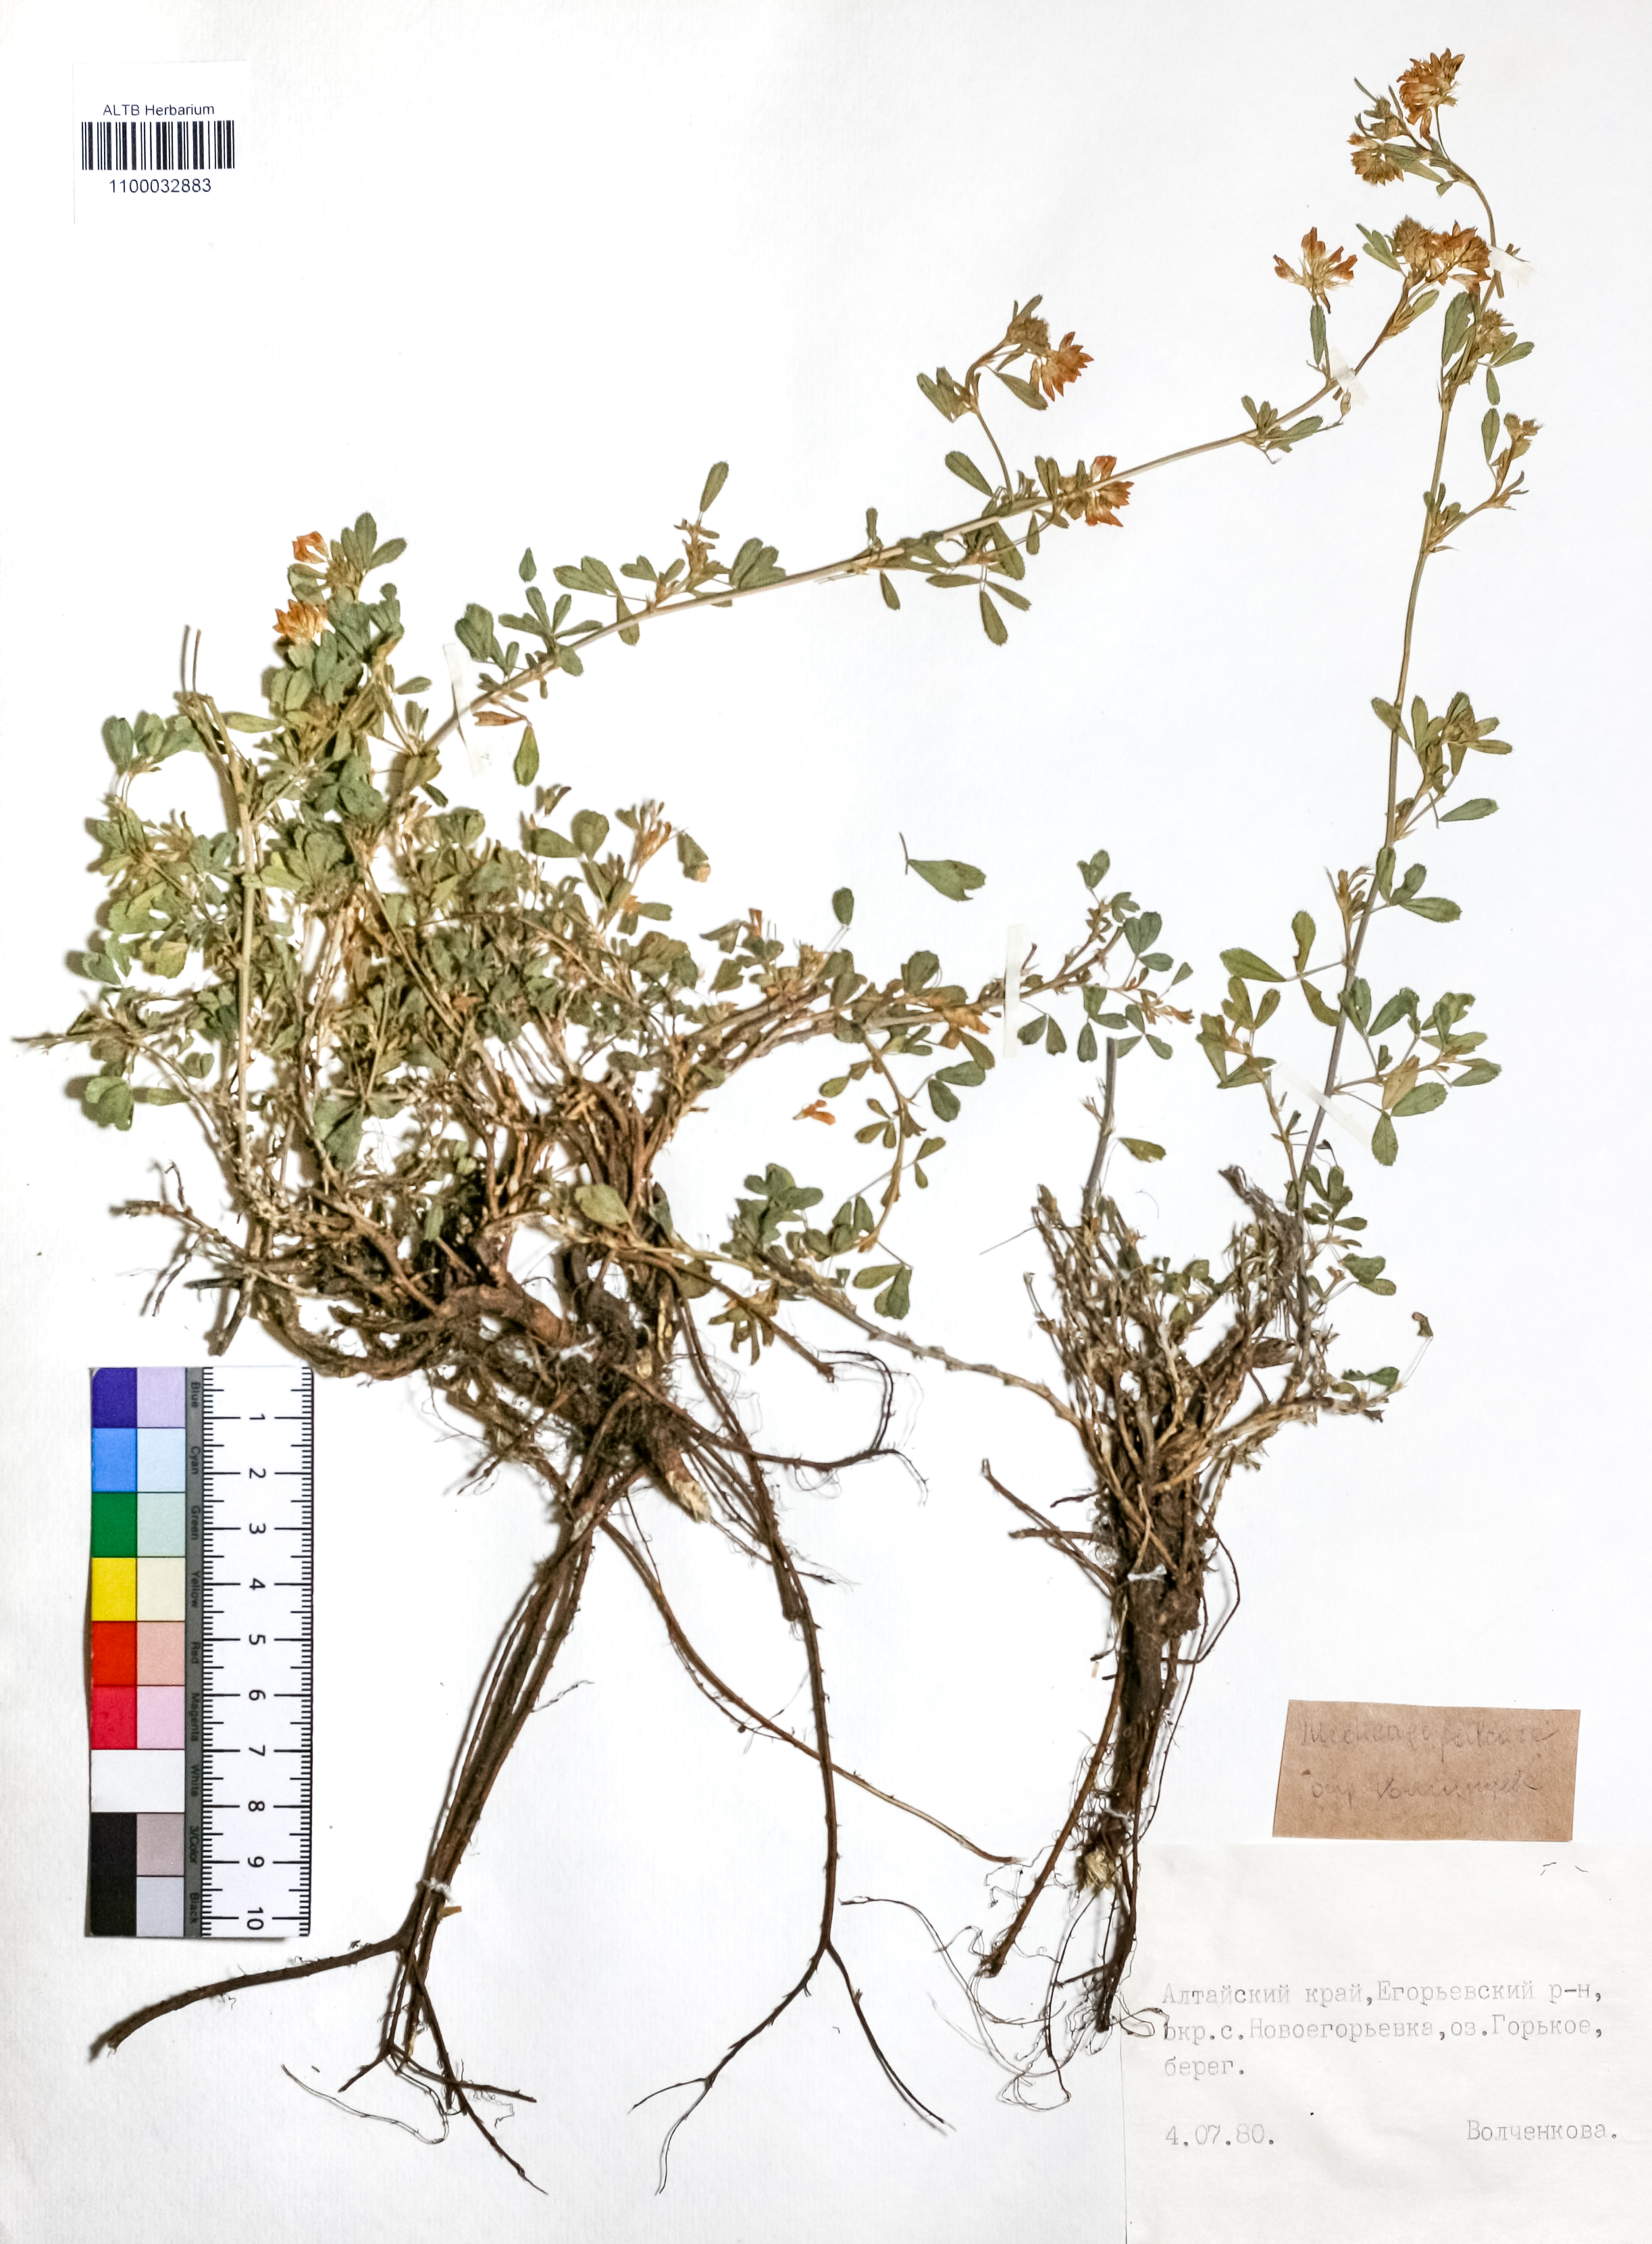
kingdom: Plantae
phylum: Tracheophyta
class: Magnoliopsida
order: Fabales
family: Fabaceae
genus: Medicago
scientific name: Medicago falcata
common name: Sickle medick
